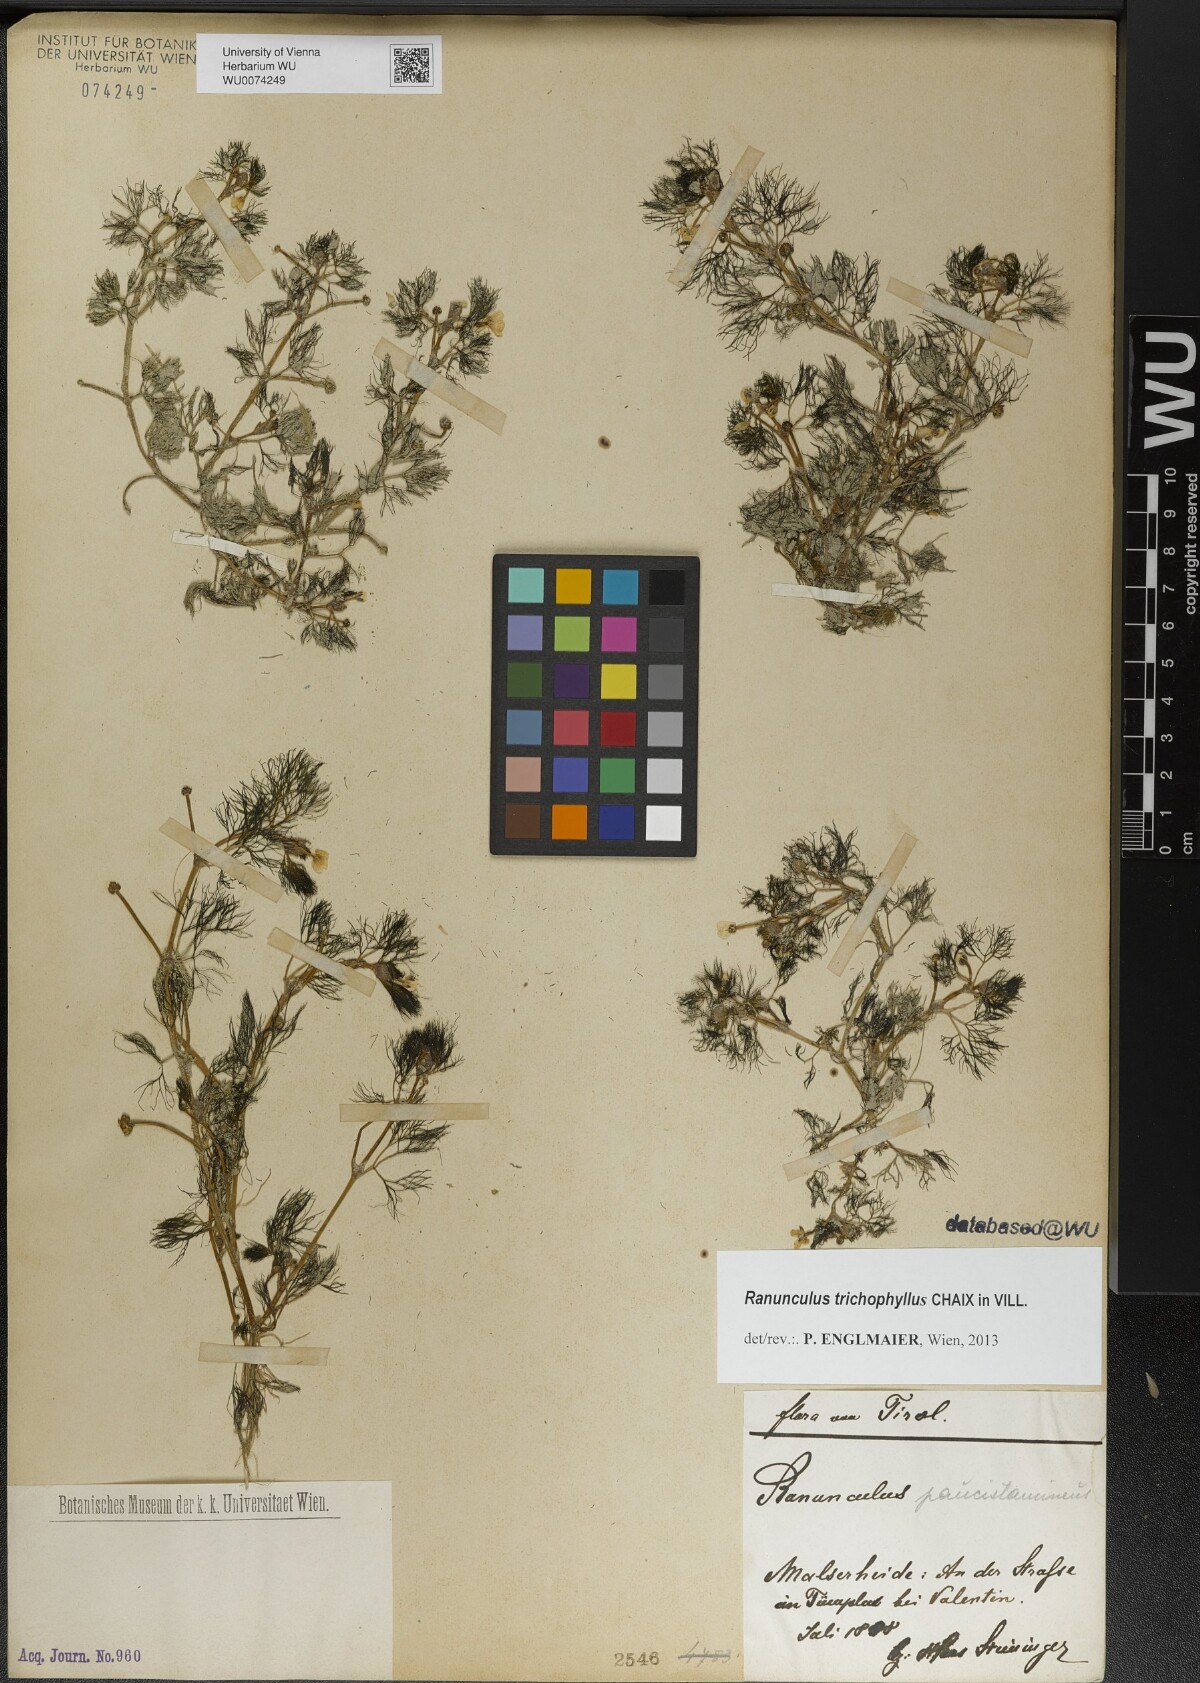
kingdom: Plantae
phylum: Tracheophyta
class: Magnoliopsida
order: Ranunculales
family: Ranunculaceae
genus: Ranunculus
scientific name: Ranunculus trichophyllus
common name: Thread-leaved water-crowfoot
